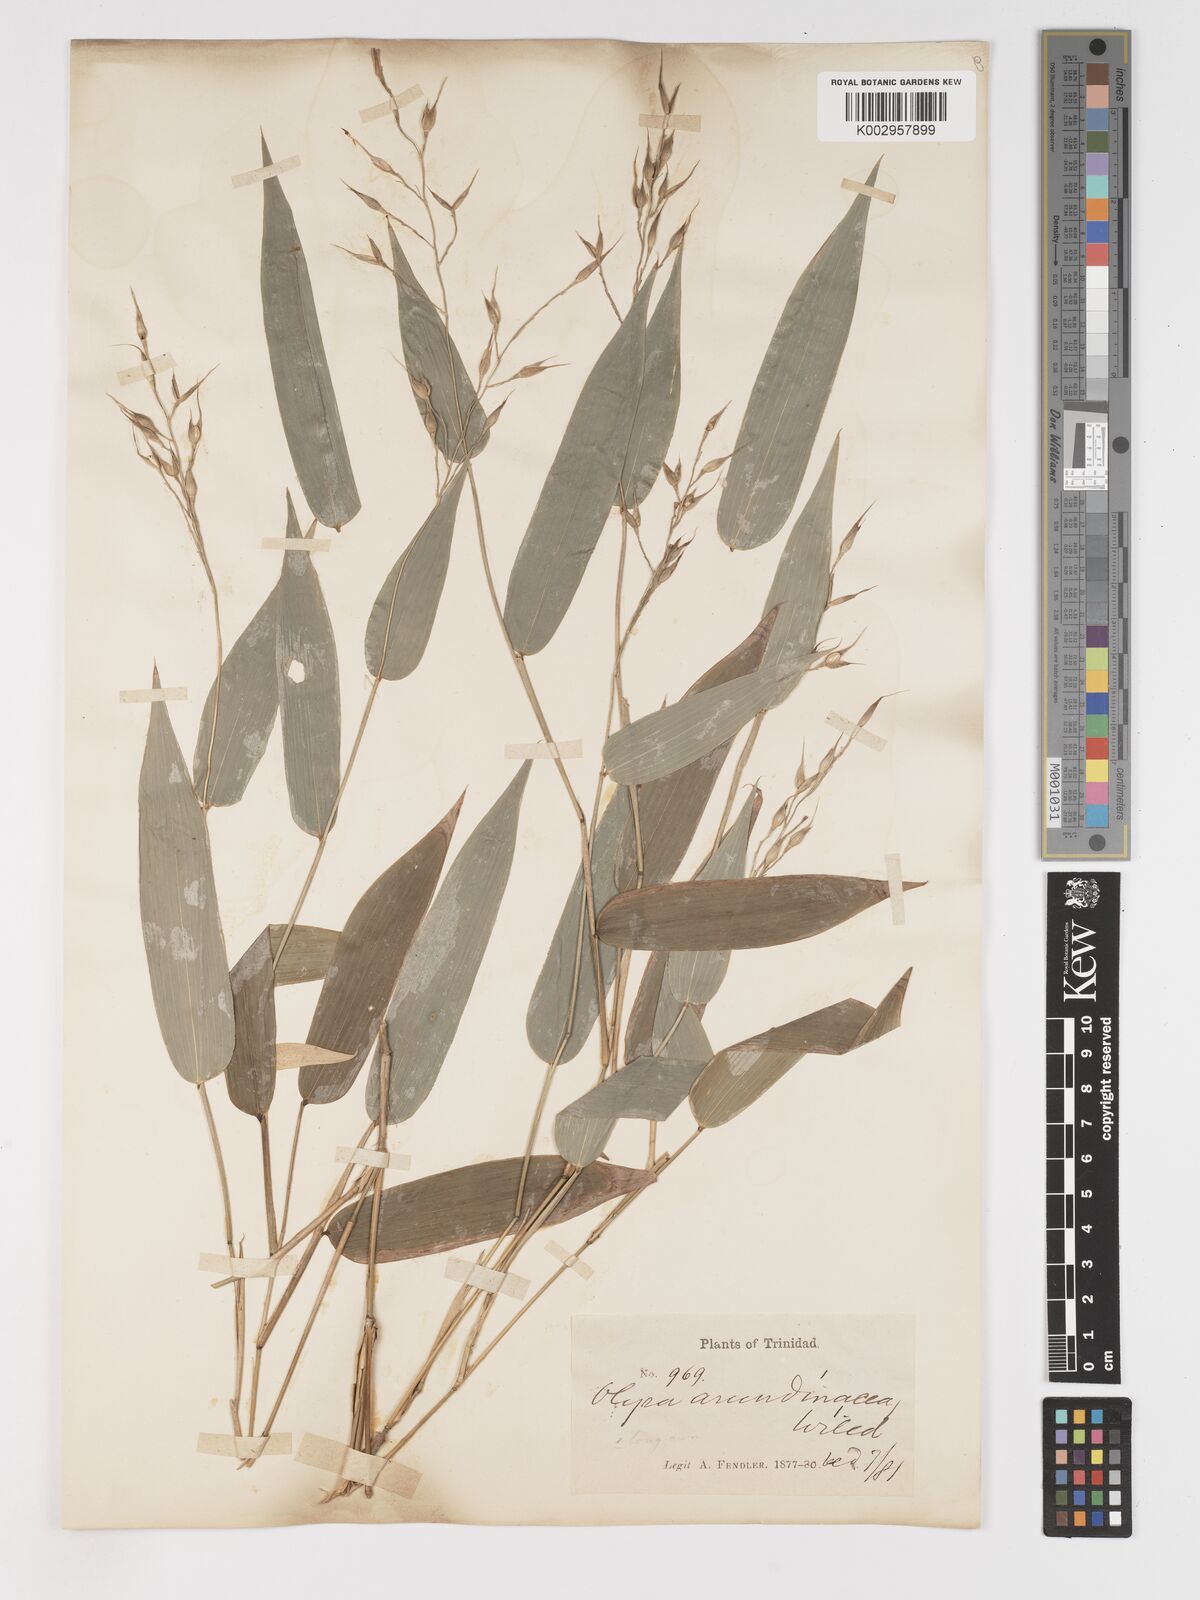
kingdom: Plantae
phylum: Tracheophyta
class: Liliopsida
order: Poales
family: Poaceae
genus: Olyra
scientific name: Olyra latifolia
